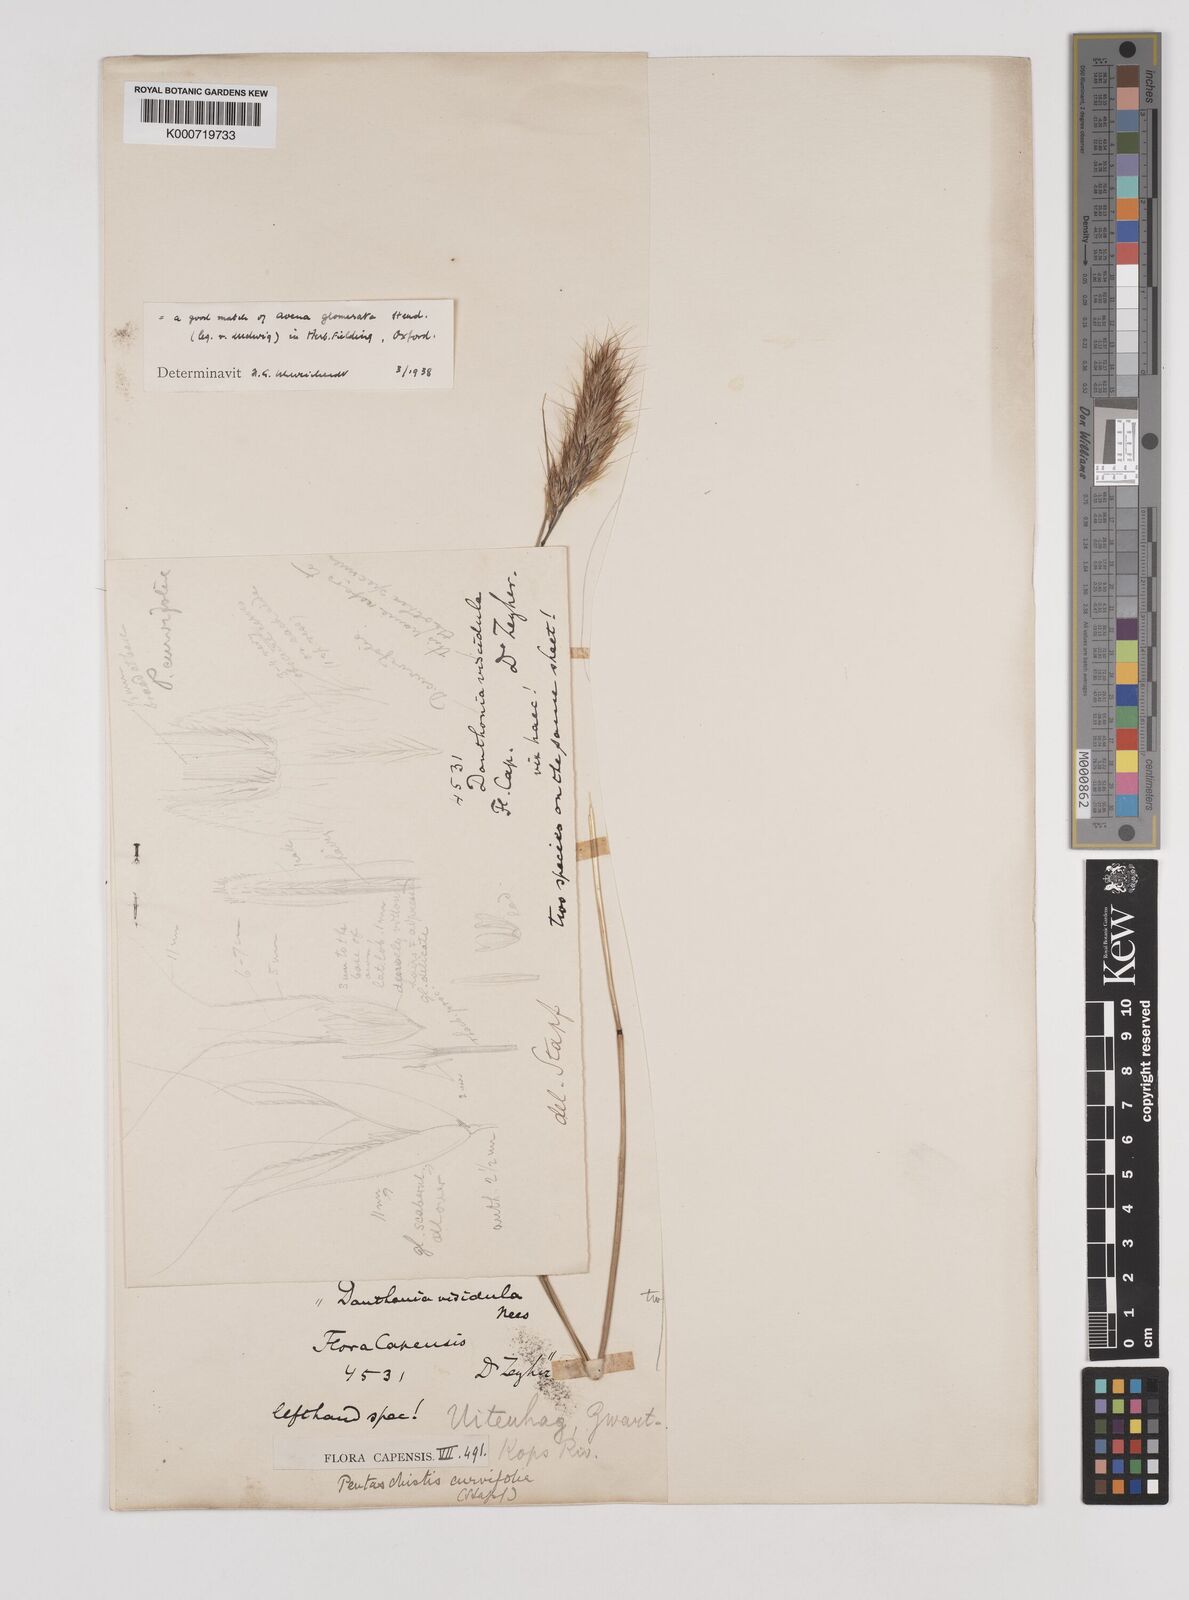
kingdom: Plantae
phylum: Tracheophyta
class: Liliopsida
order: Poales
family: Poaceae
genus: Pentameris
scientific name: Pentameris curvifolia
